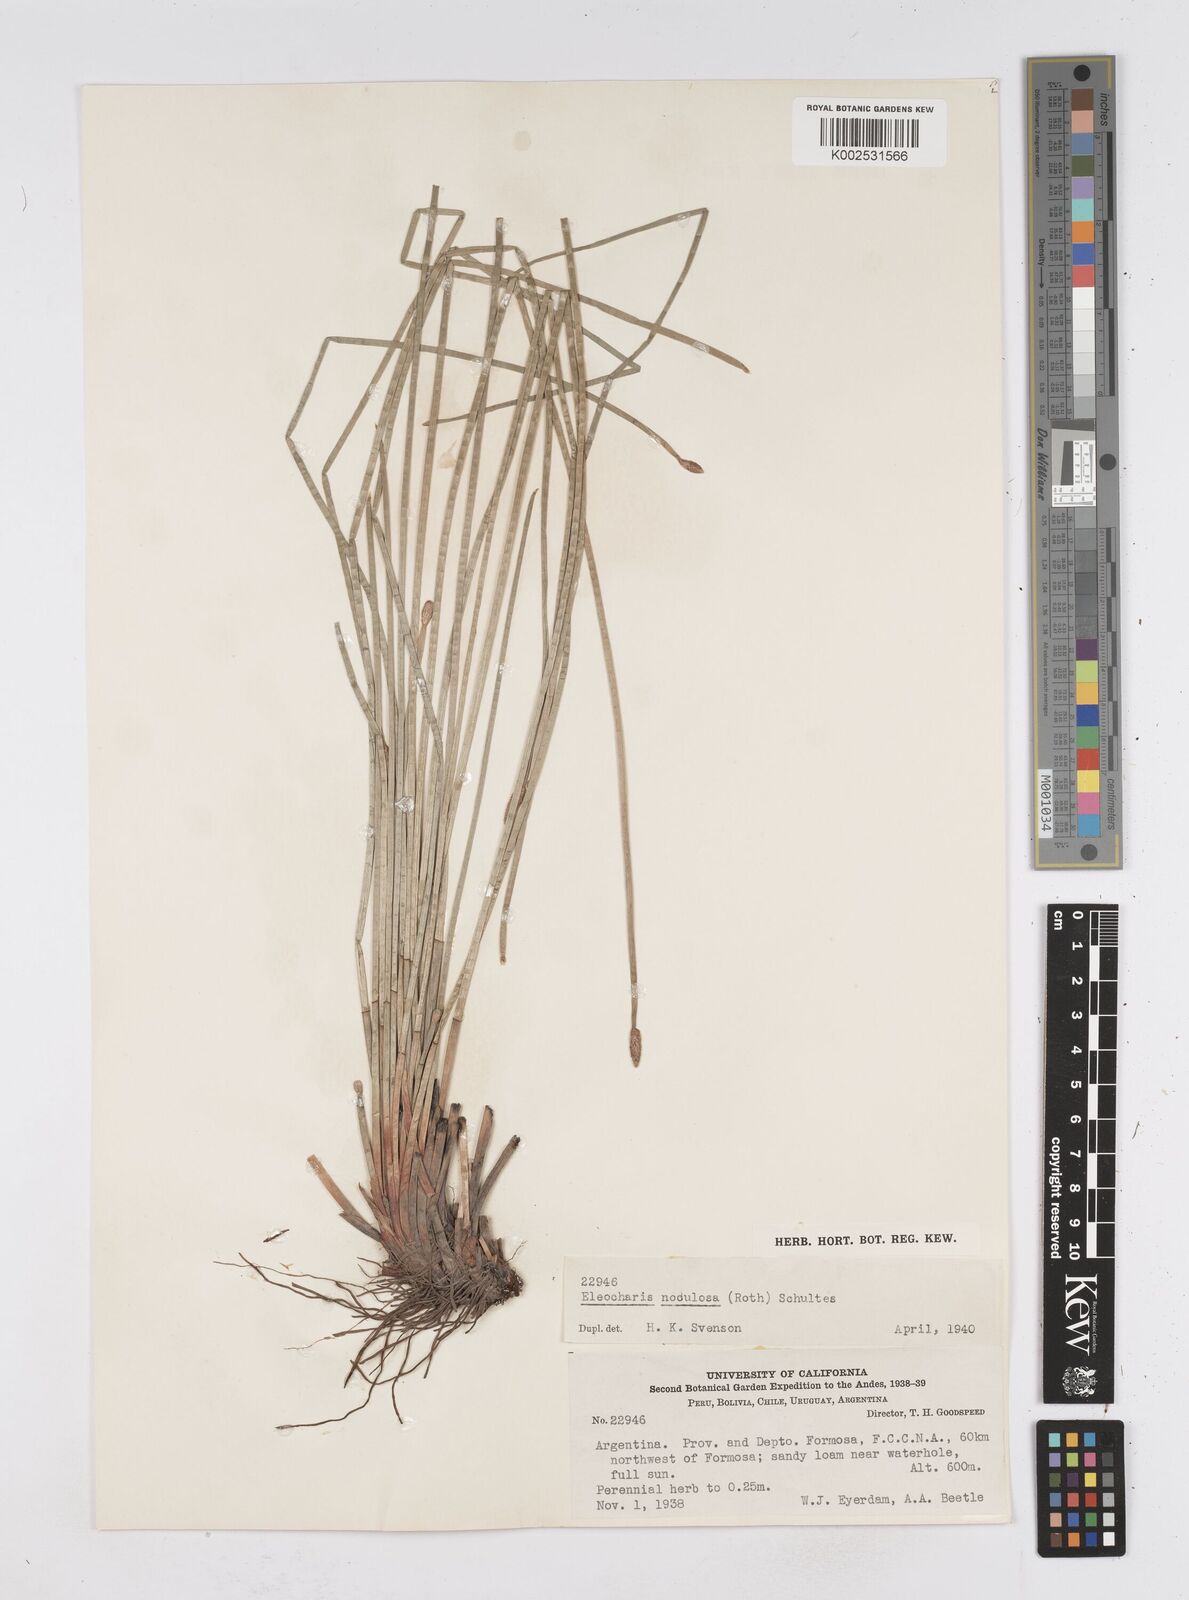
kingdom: Plantae
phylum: Tracheophyta
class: Liliopsida
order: Poales
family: Cyperaceae
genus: Eleocharis
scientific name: Eleocharis montana
